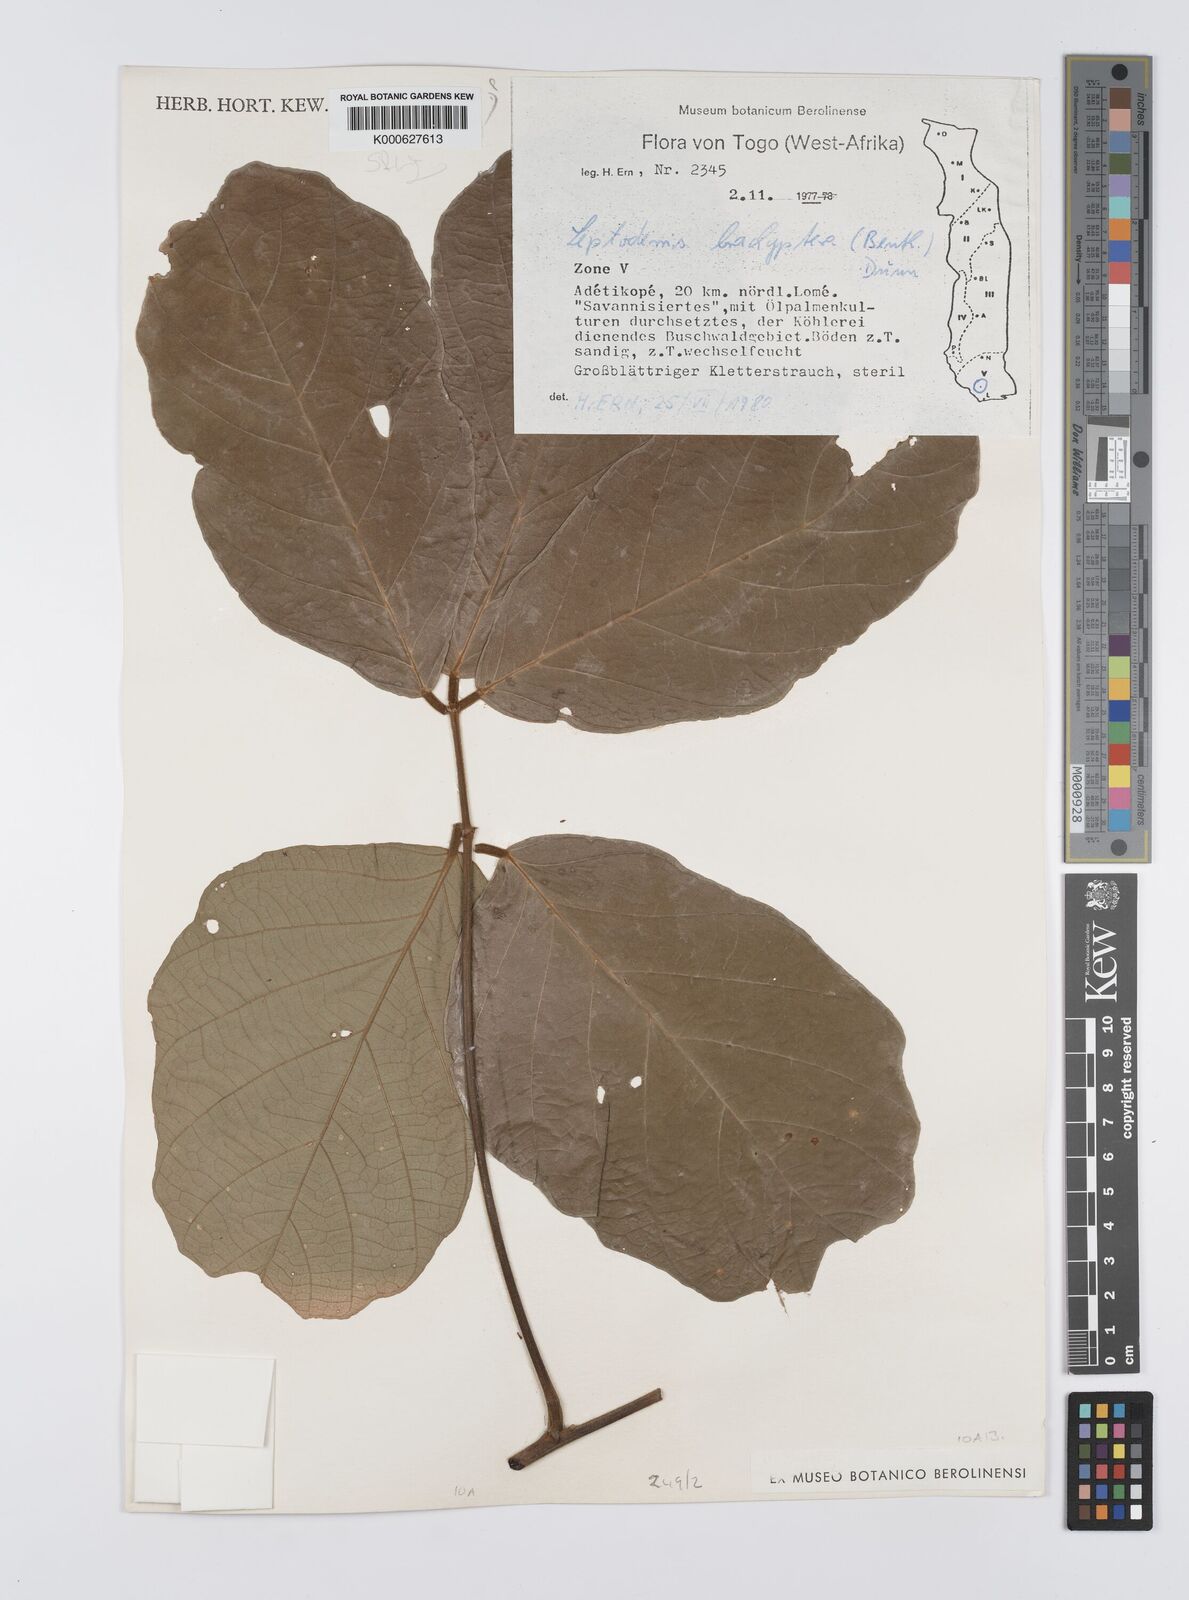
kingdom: Plantae
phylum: Tracheophyta
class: Magnoliopsida
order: Fabales
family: Fabaceae
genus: Leptoderris
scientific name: Leptoderris brachyptera
